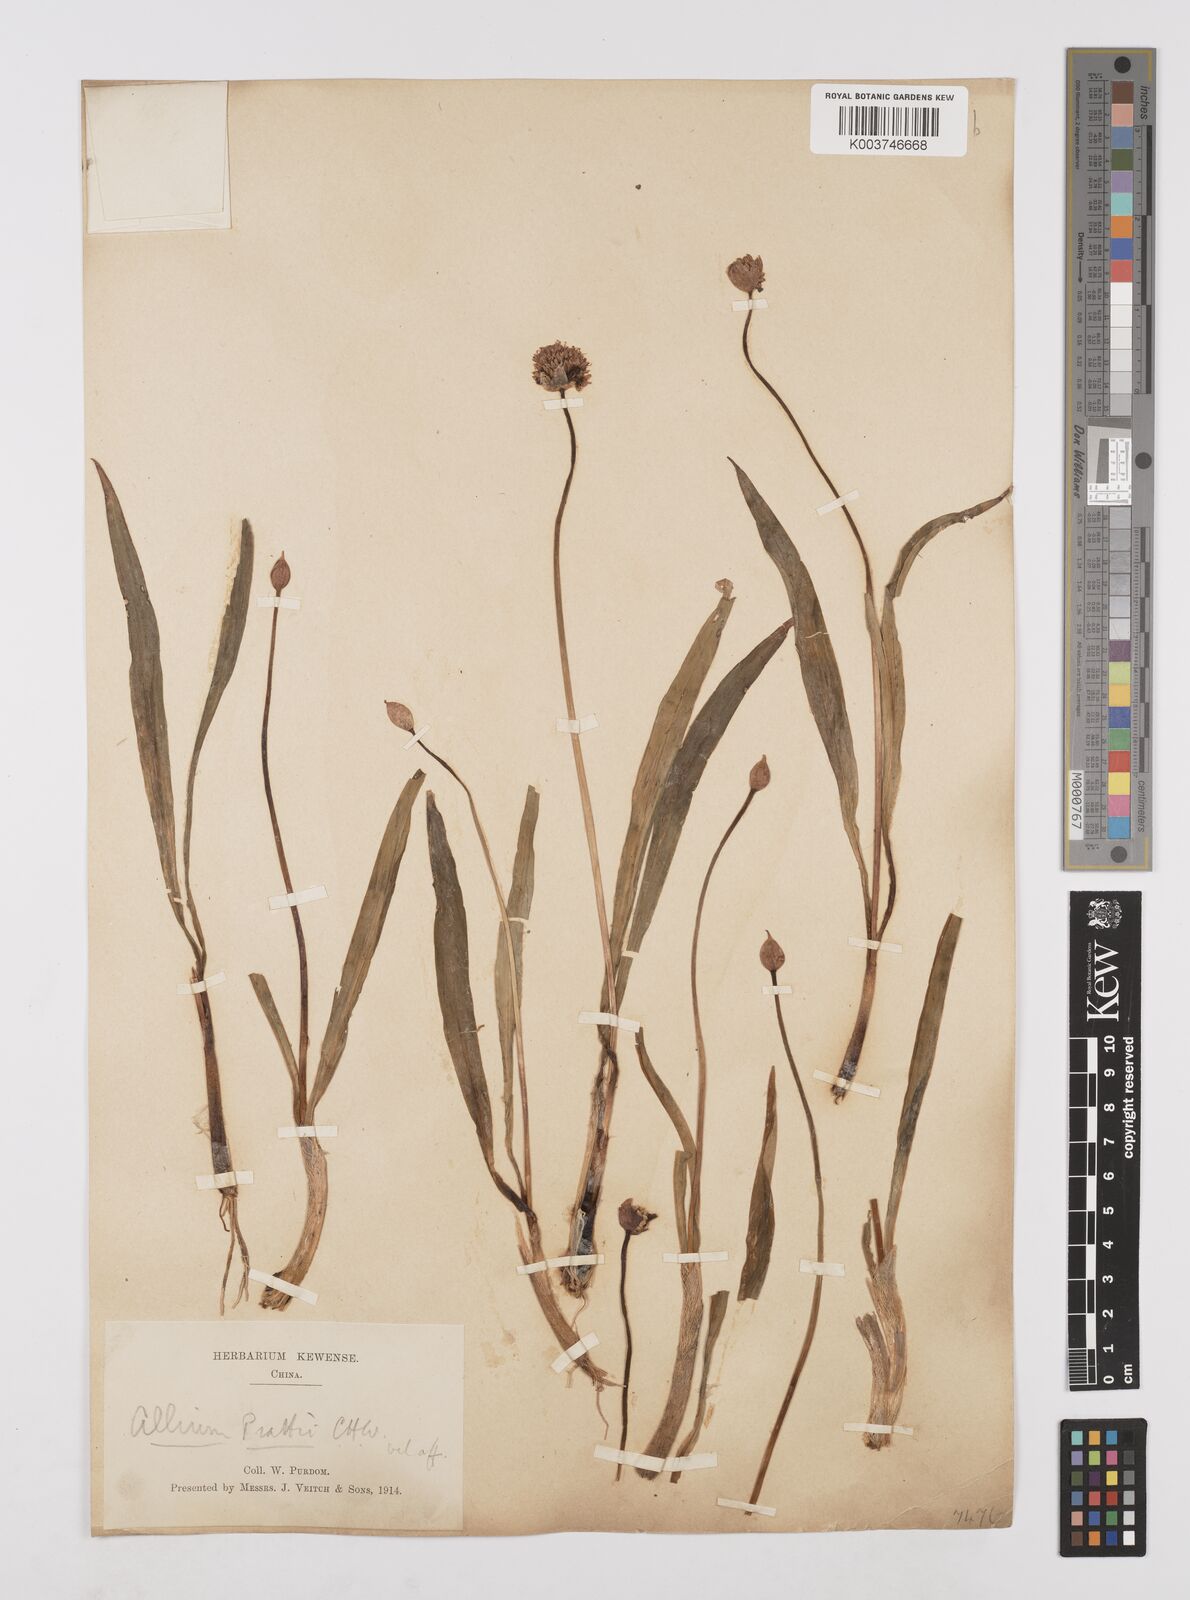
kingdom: Plantae
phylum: Tracheophyta
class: Liliopsida
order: Asparagales
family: Amaryllidaceae
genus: Allium
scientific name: Allium prattii
